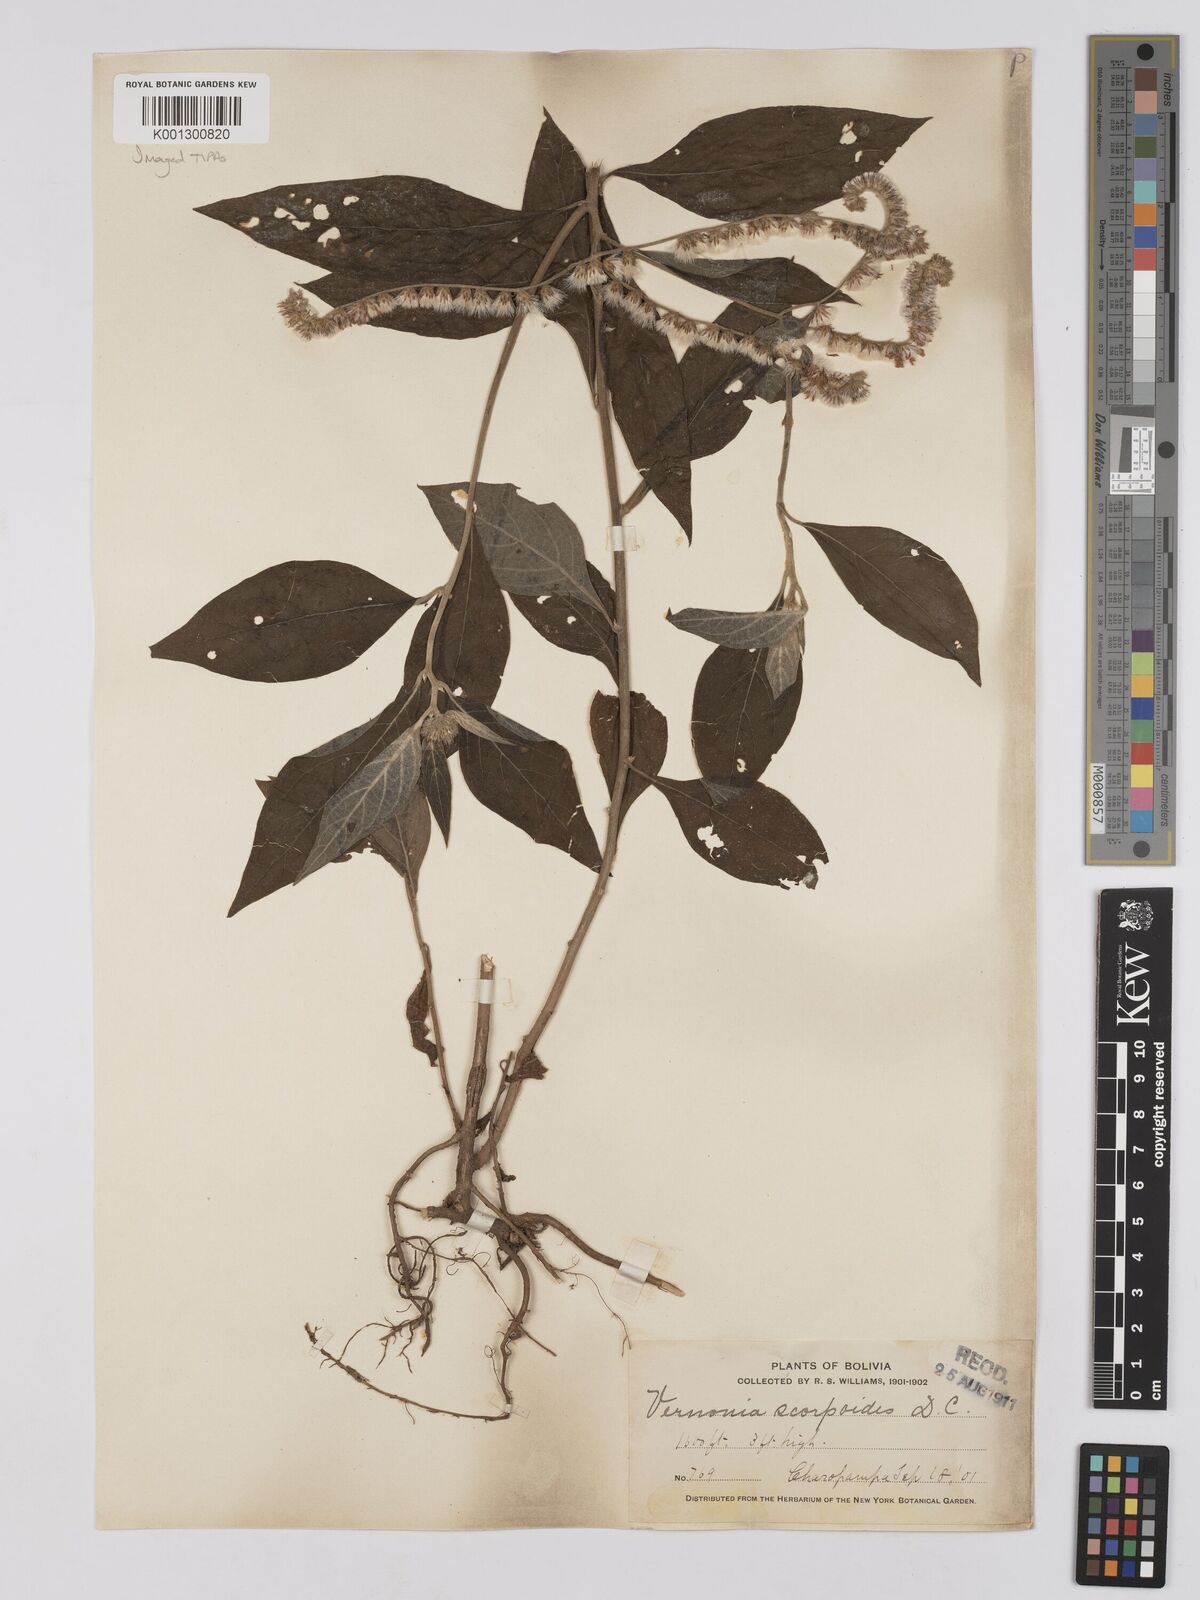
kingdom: Plantae
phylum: Tracheophyta
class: Magnoliopsida
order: Asterales
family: Asteraceae
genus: Cyrtocymura
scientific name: Cyrtocymura scorpioides
